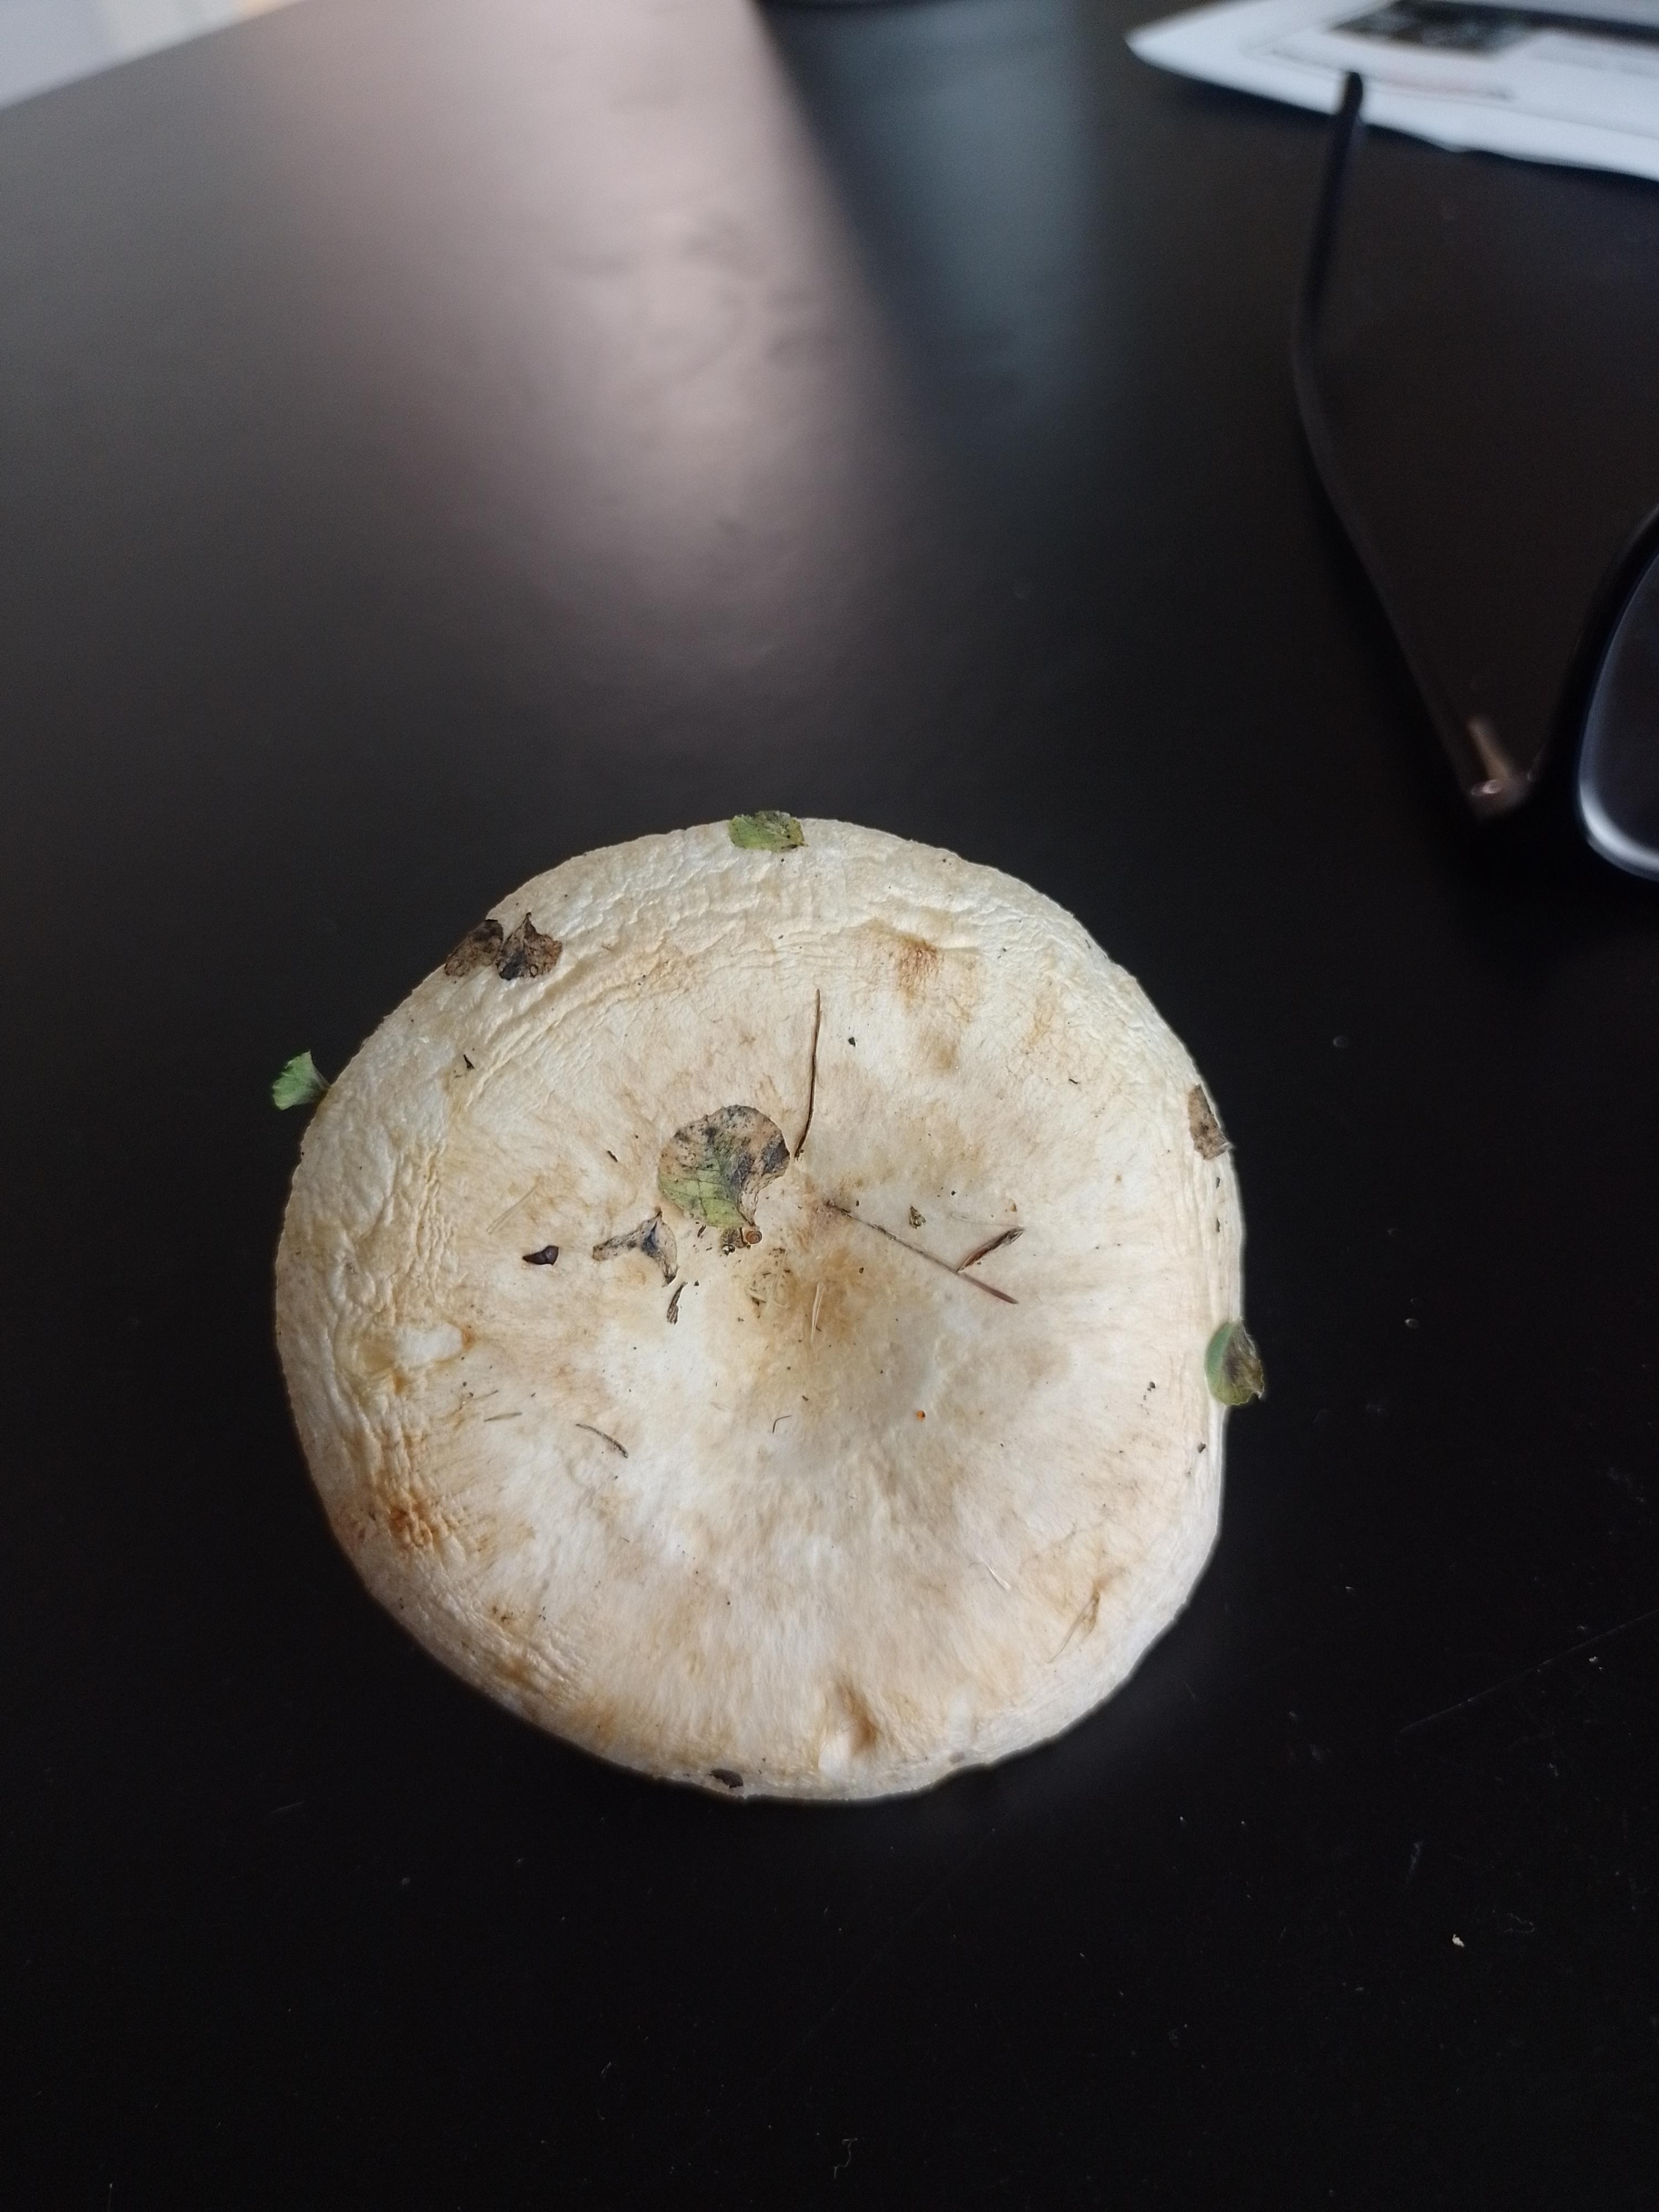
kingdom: Fungi
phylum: Basidiomycota
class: Agaricomycetes
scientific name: Agaricomycetes
